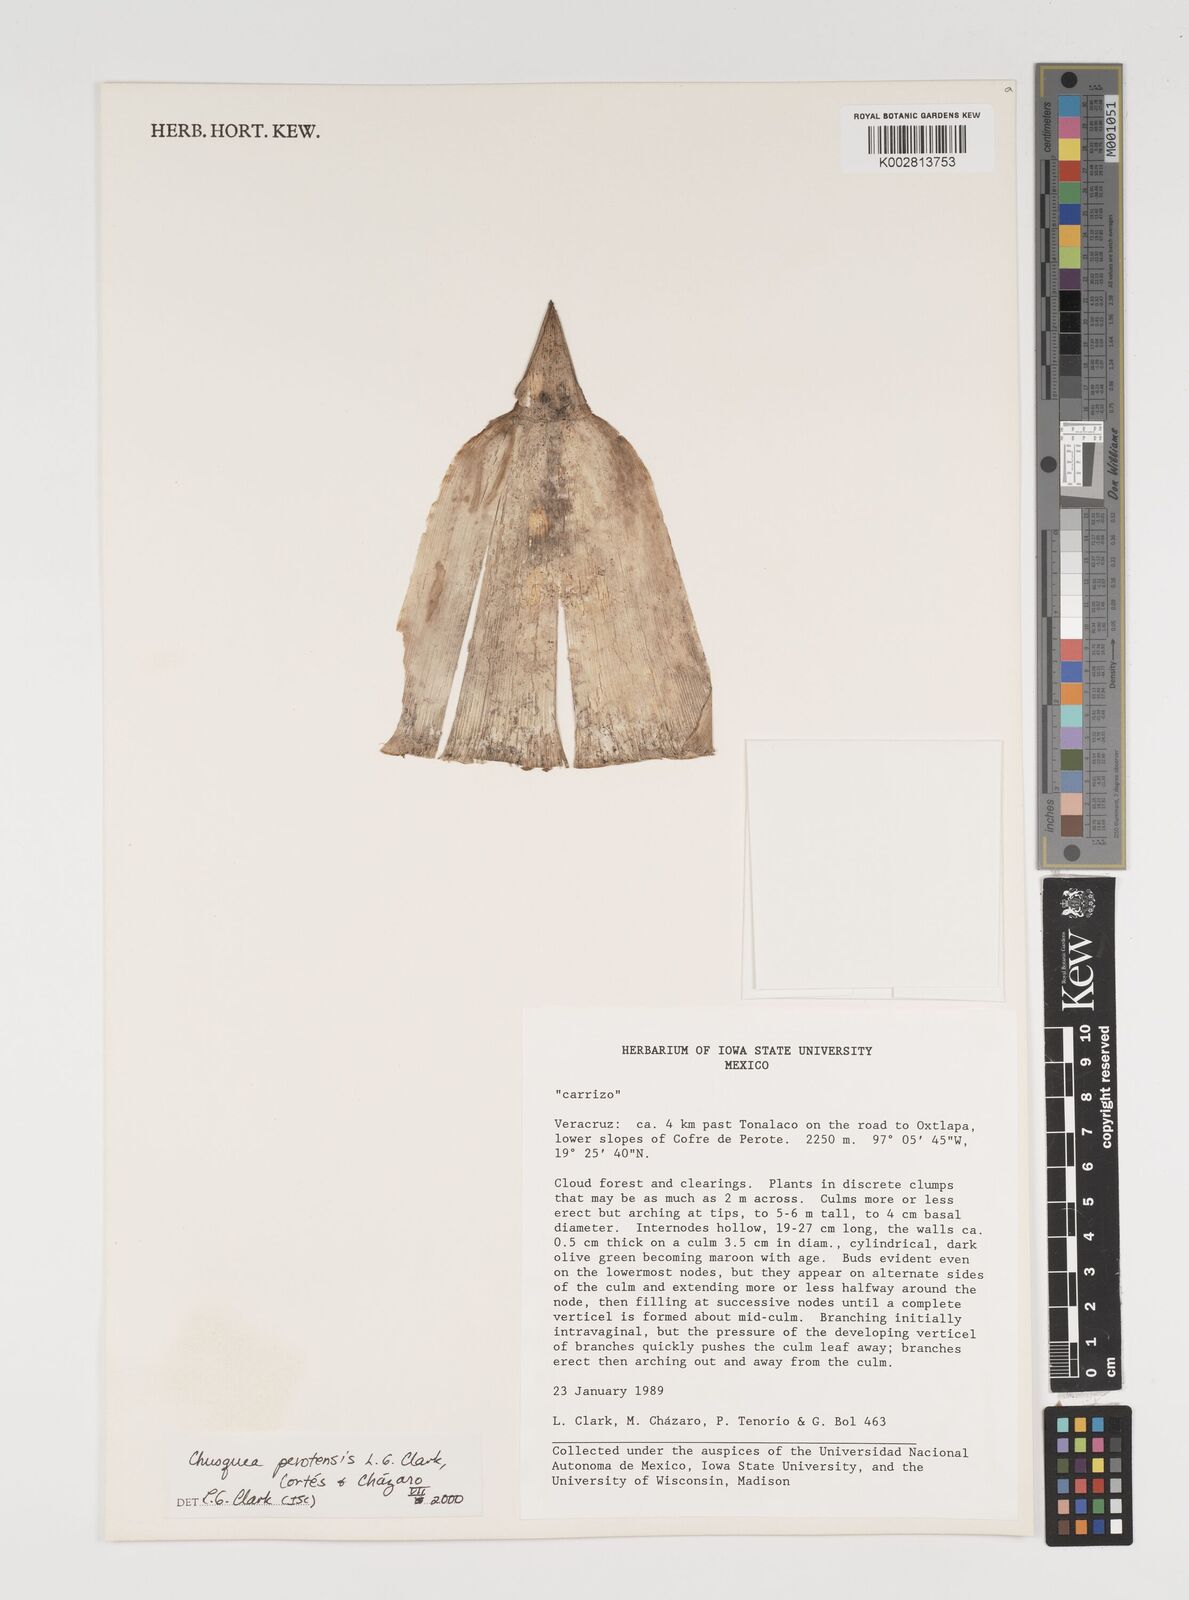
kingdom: Plantae
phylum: Tracheophyta
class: Liliopsida
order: Poales
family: Poaceae
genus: Chusquea
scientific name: Chusquea perotensis
